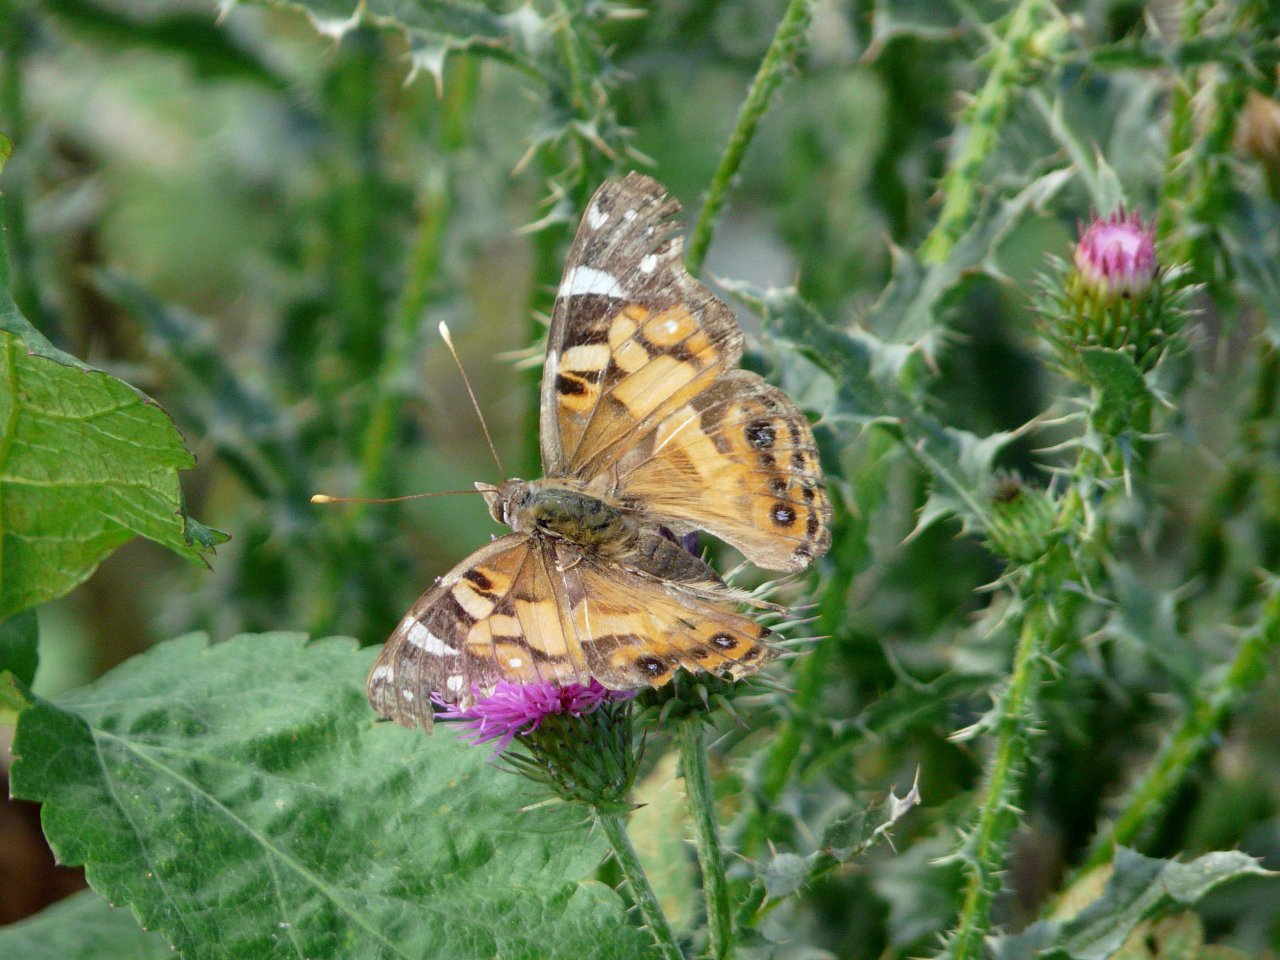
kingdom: Animalia
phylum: Arthropoda
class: Insecta
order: Lepidoptera
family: Nymphalidae
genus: Vanessa
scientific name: Vanessa virginiensis
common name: American Lady
